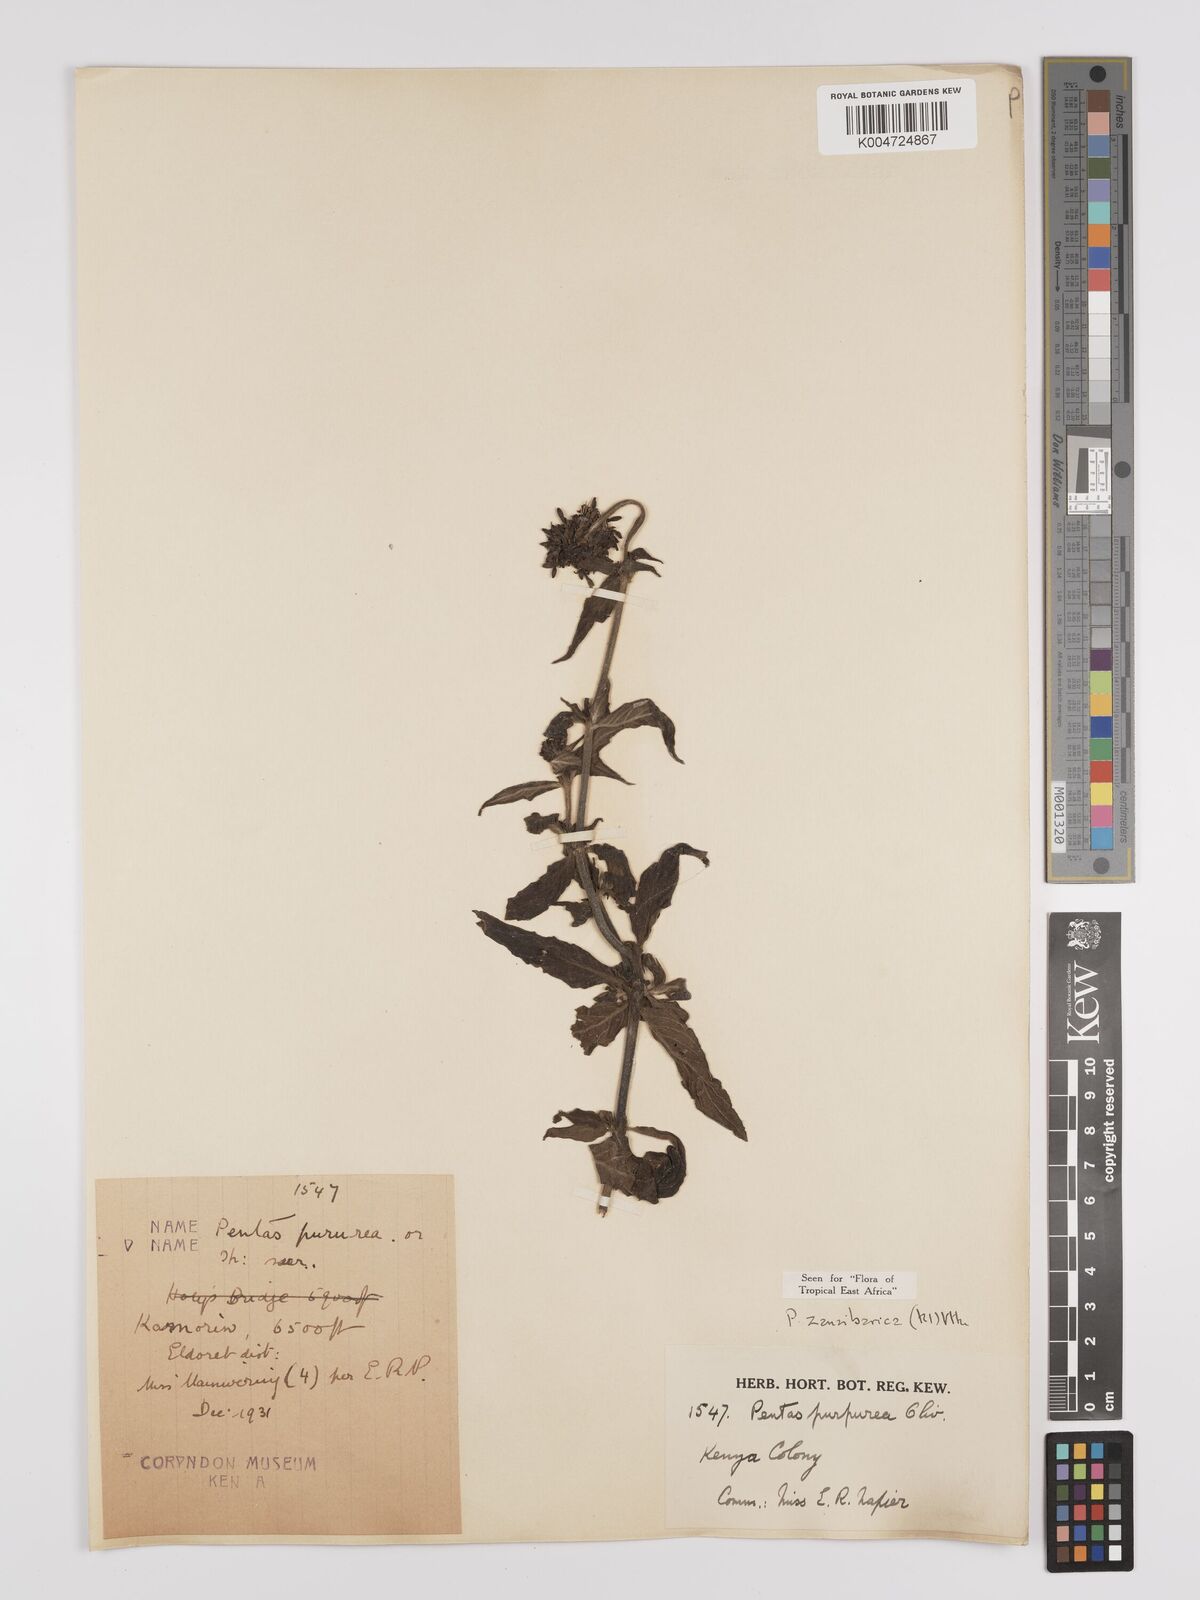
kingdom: Plantae
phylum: Tracheophyta
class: Magnoliopsida
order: Gentianales
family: Rubiaceae
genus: Pentas
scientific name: Pentas zanzibarica
